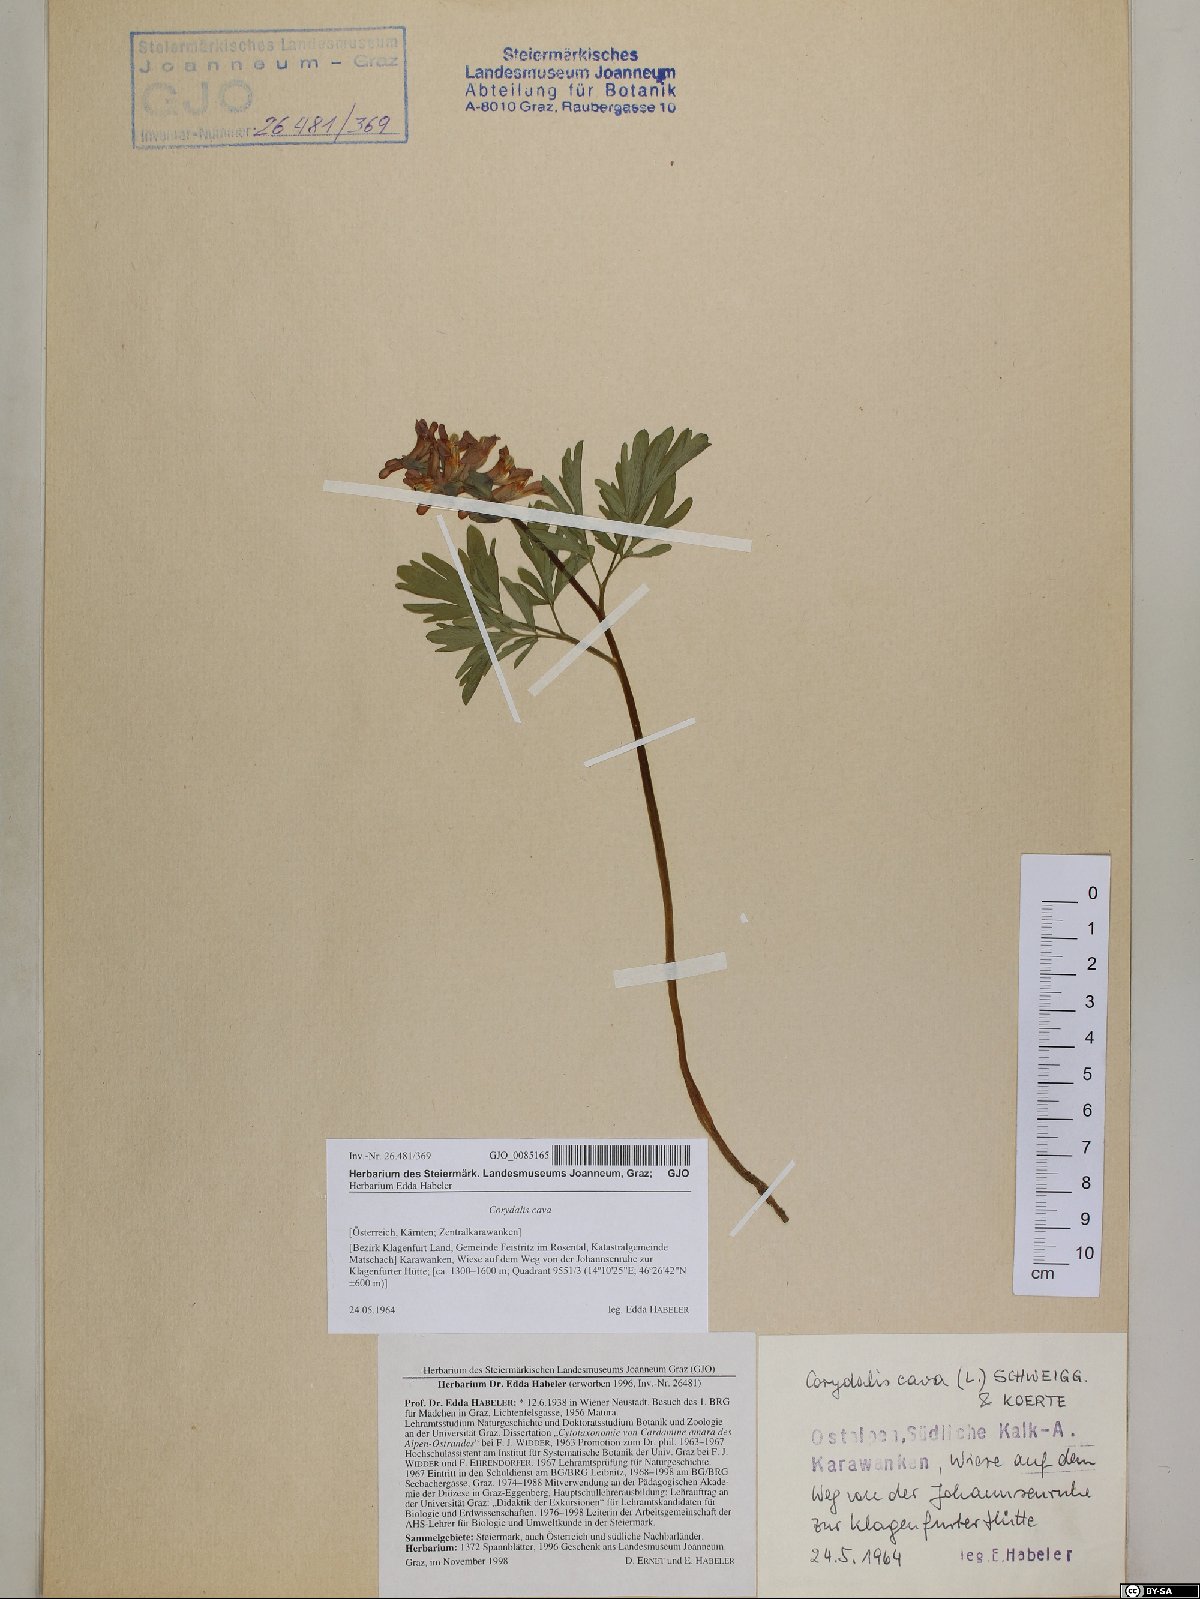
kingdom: Plantae
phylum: Tracheophyta
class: Magnoliopsida
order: Ranunculales
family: Papaveraceae
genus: Corydalis
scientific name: Corydalis cava
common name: Hollowroot
